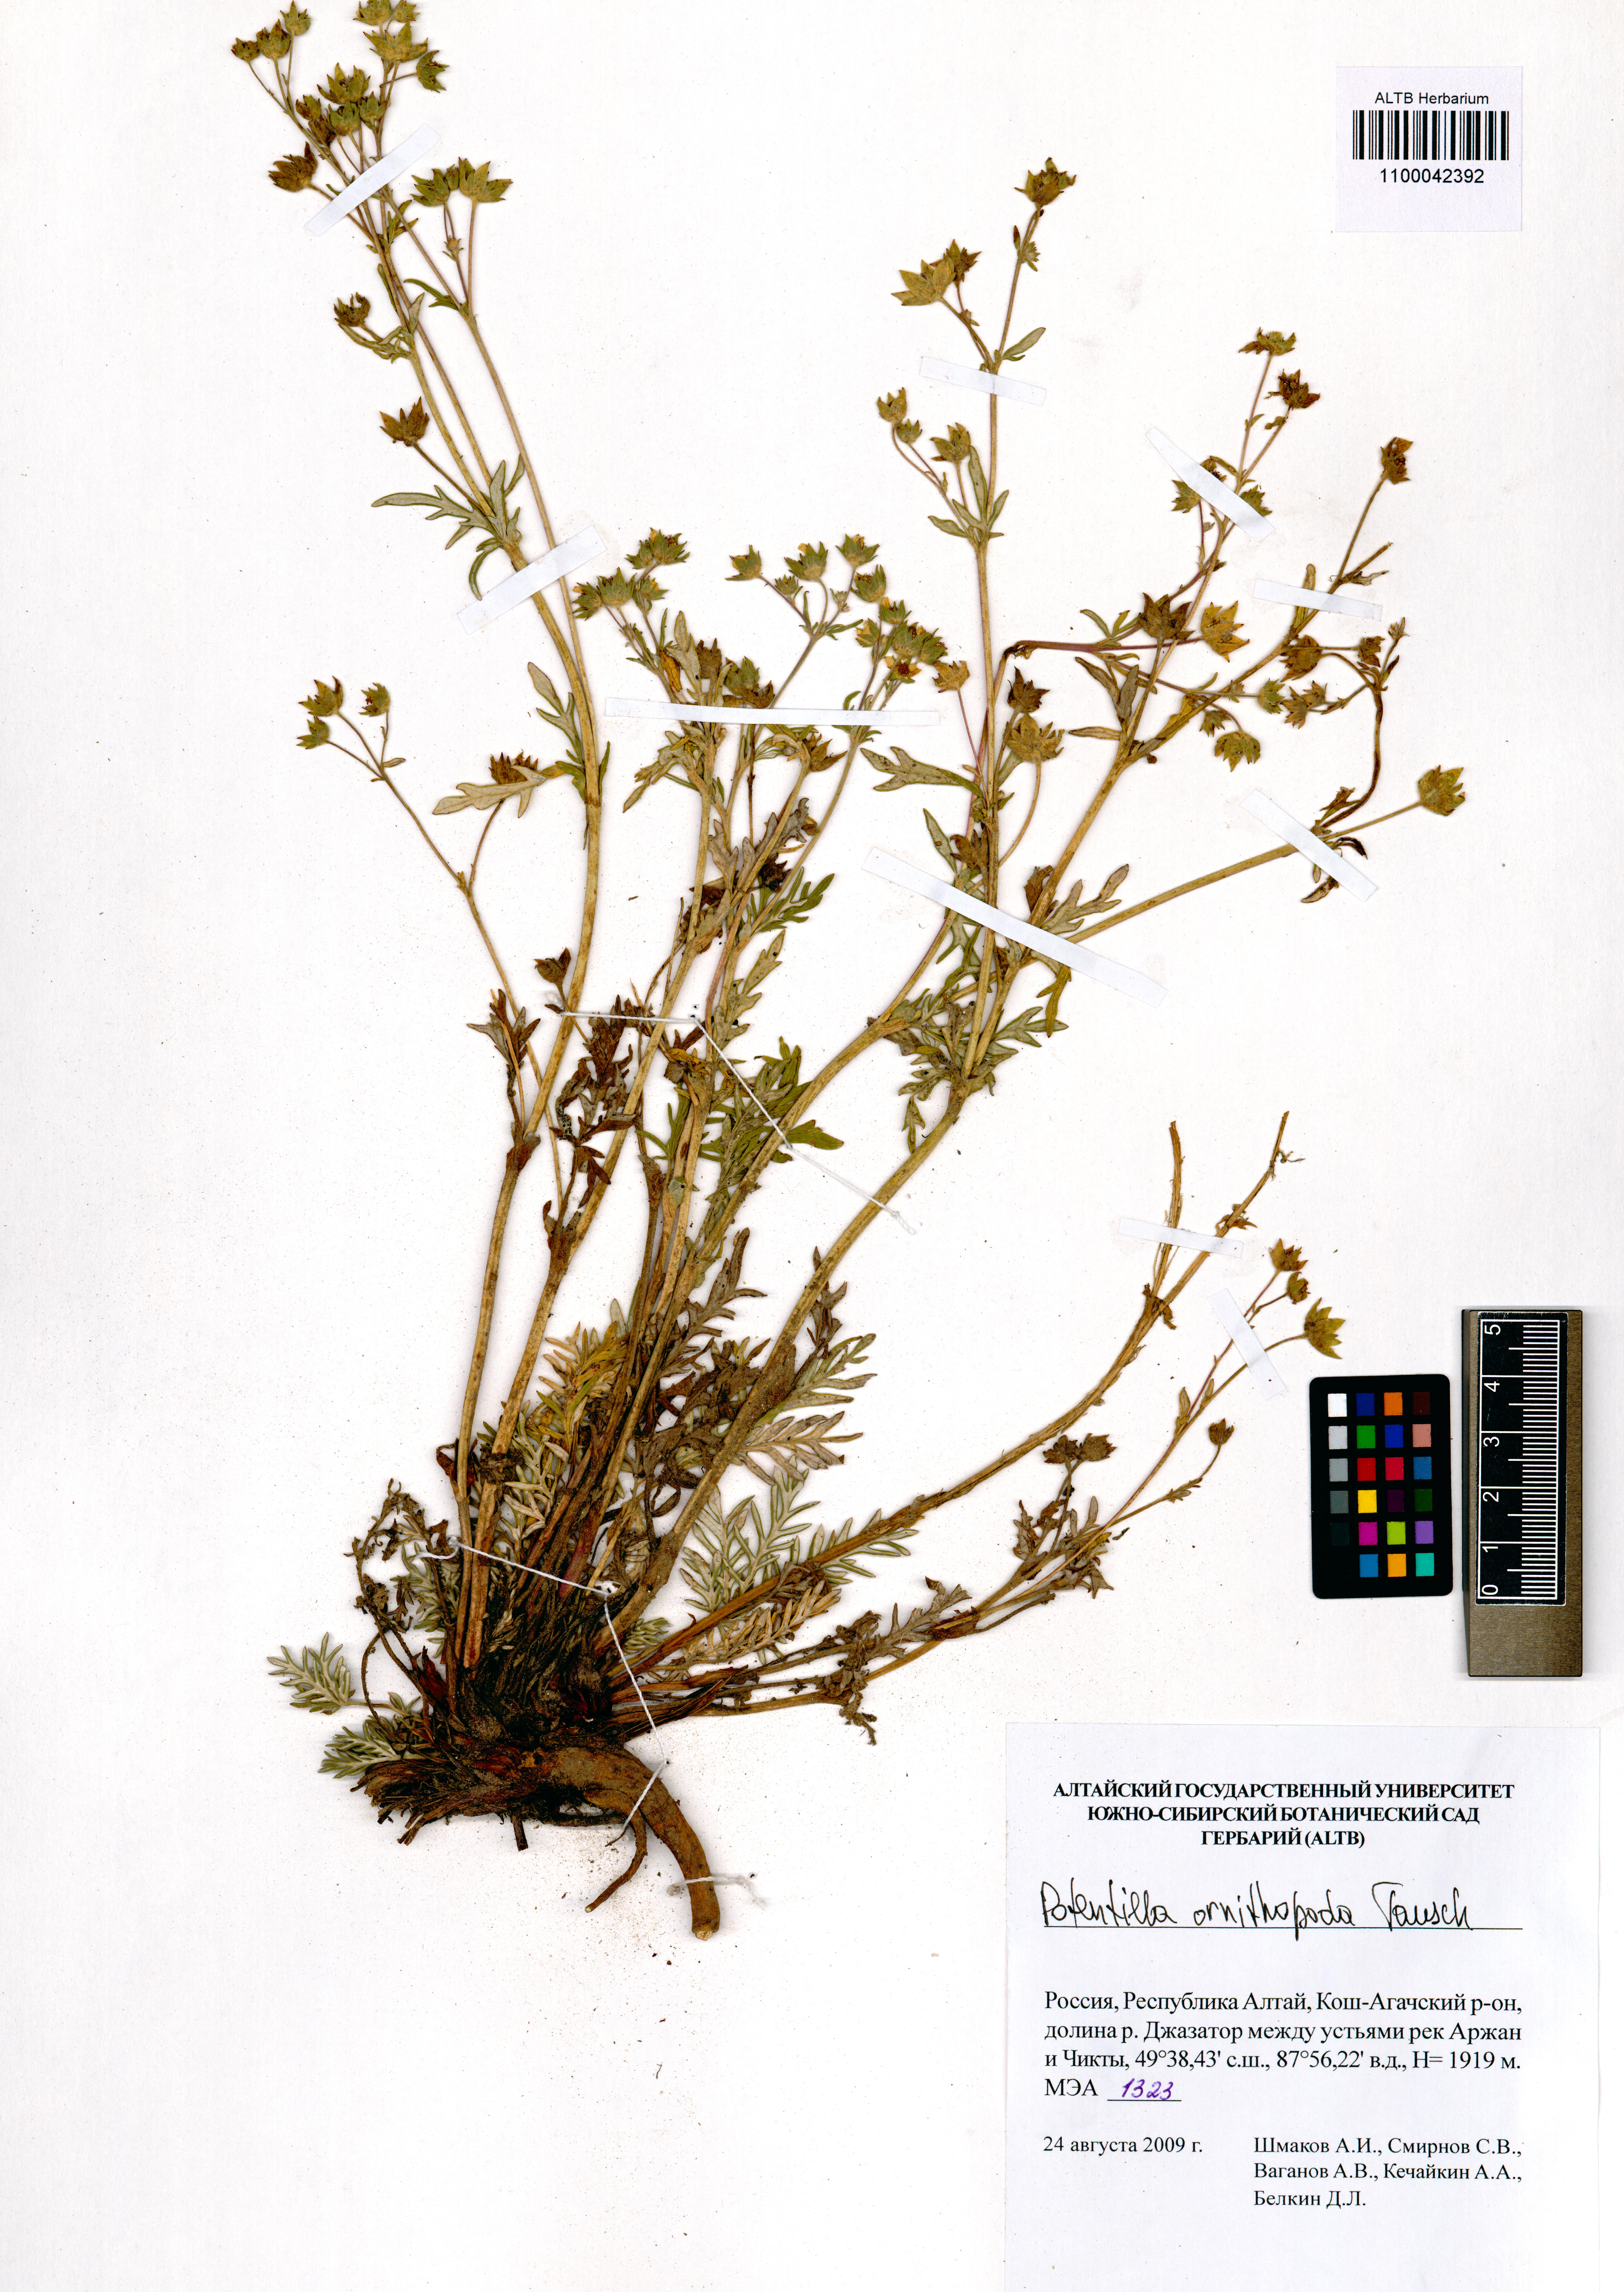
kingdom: Plantae
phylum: Tracheophyta
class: Magnoliopsida
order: Rosales
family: Rosaceae
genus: Potentilla
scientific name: Potentilla ornithopoda
